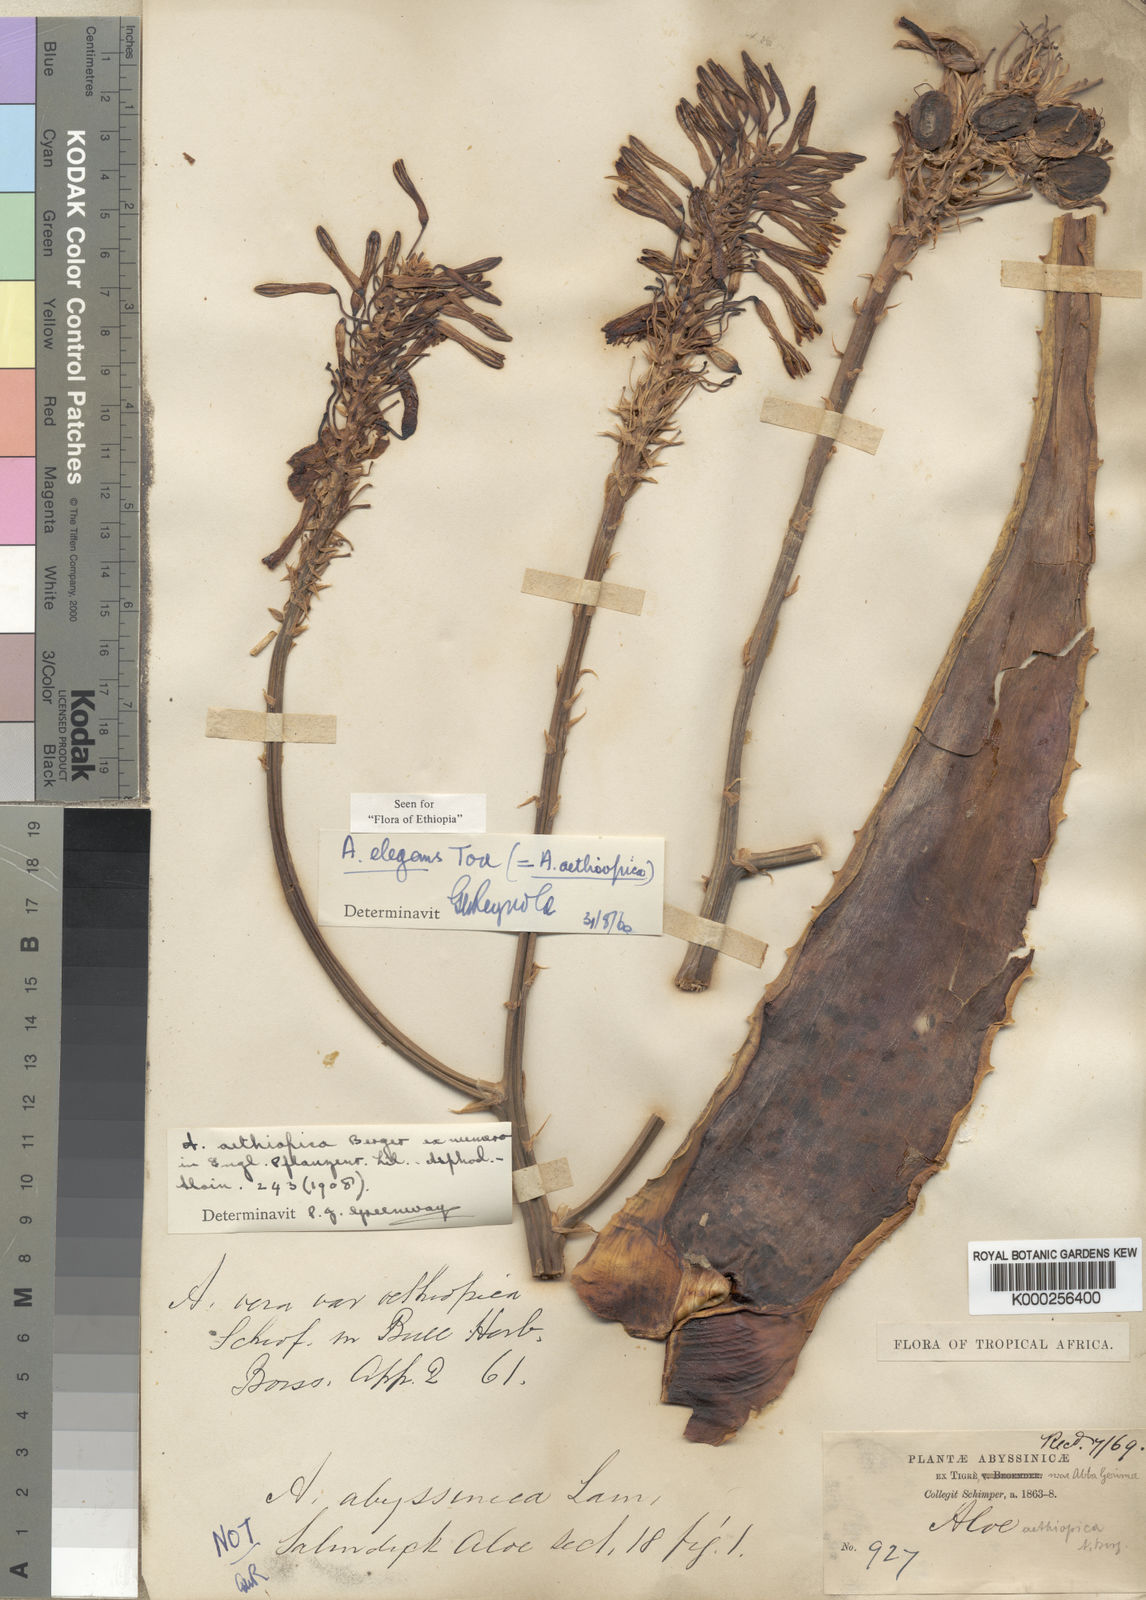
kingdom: Plantae
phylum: Tracheophyta
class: Liliopsida
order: Asparagales
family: Asphodelaceae
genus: Aloe
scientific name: Aloe elegans
